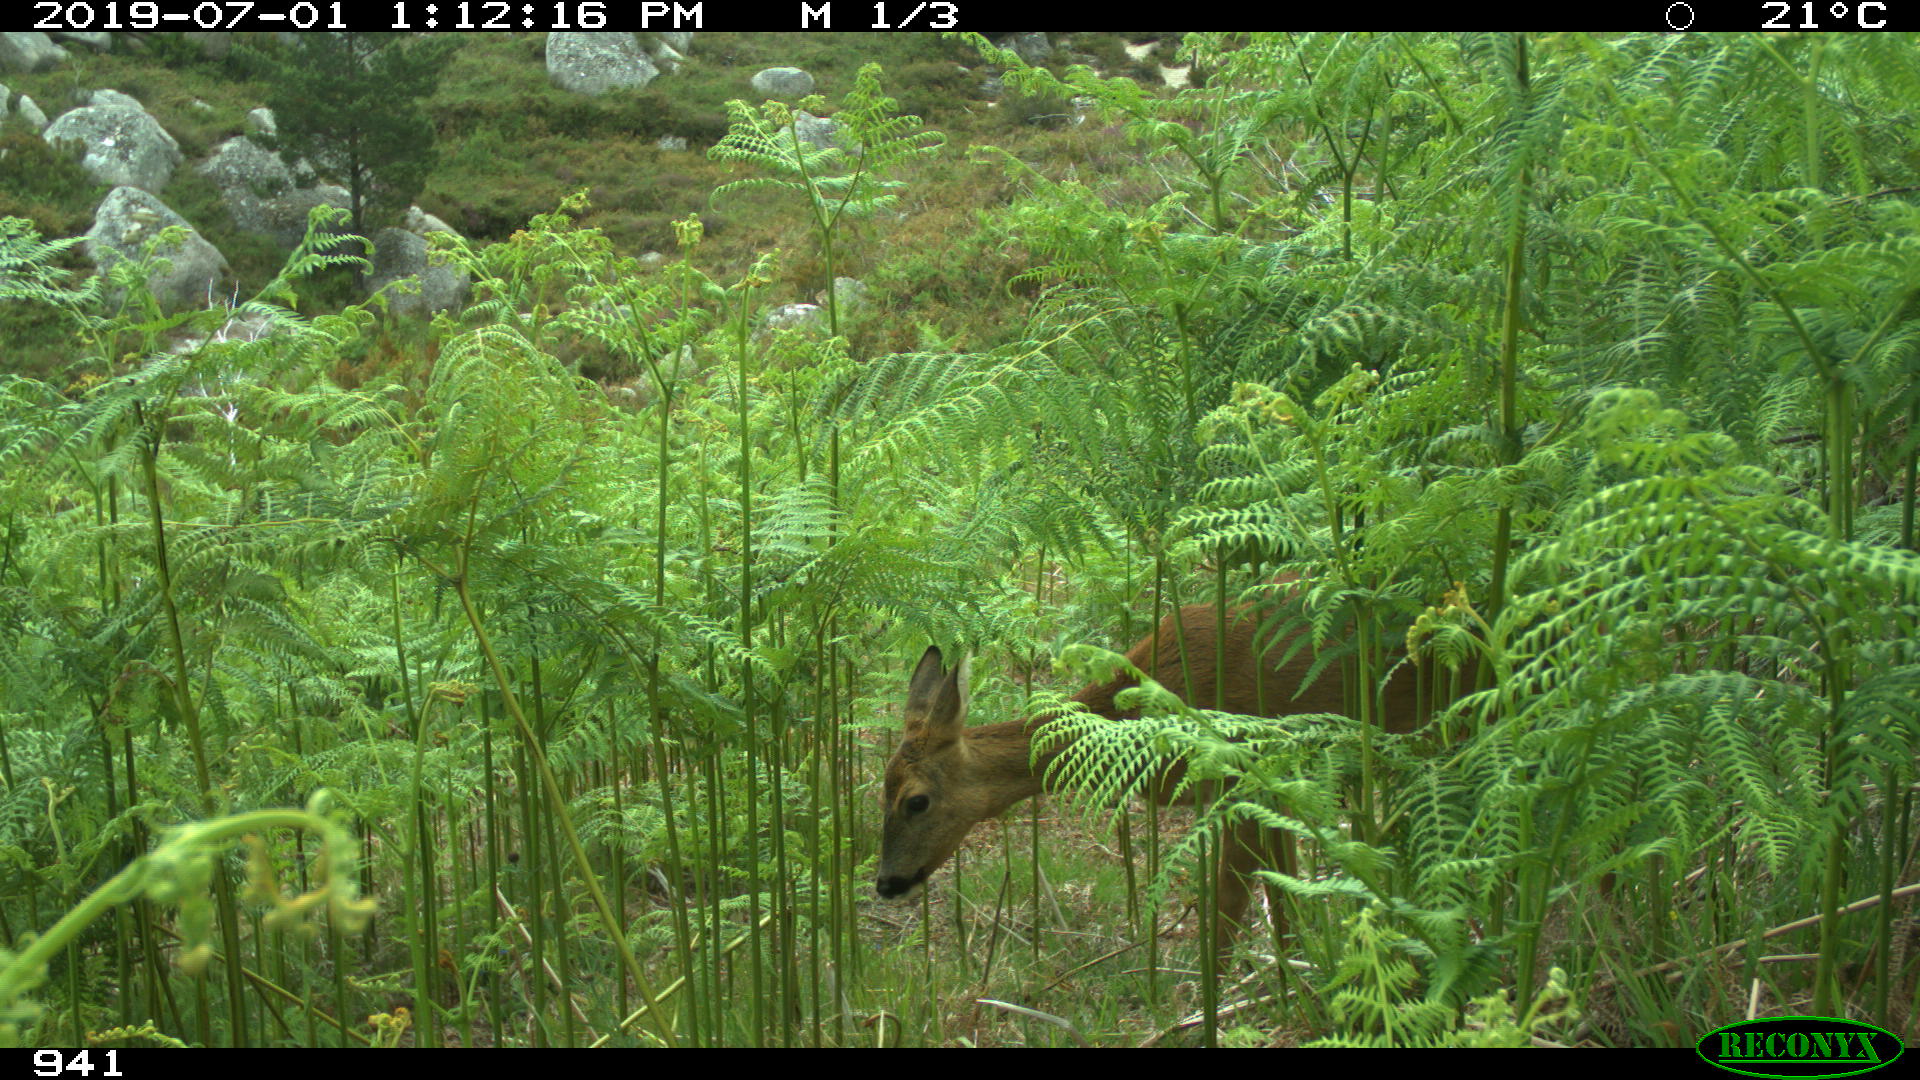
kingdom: Animalia
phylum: Chordata
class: Mammalia
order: Artiodactyla
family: Cervidae
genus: Capreolus
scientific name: Capreolus capreolus
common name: Western roe deer
